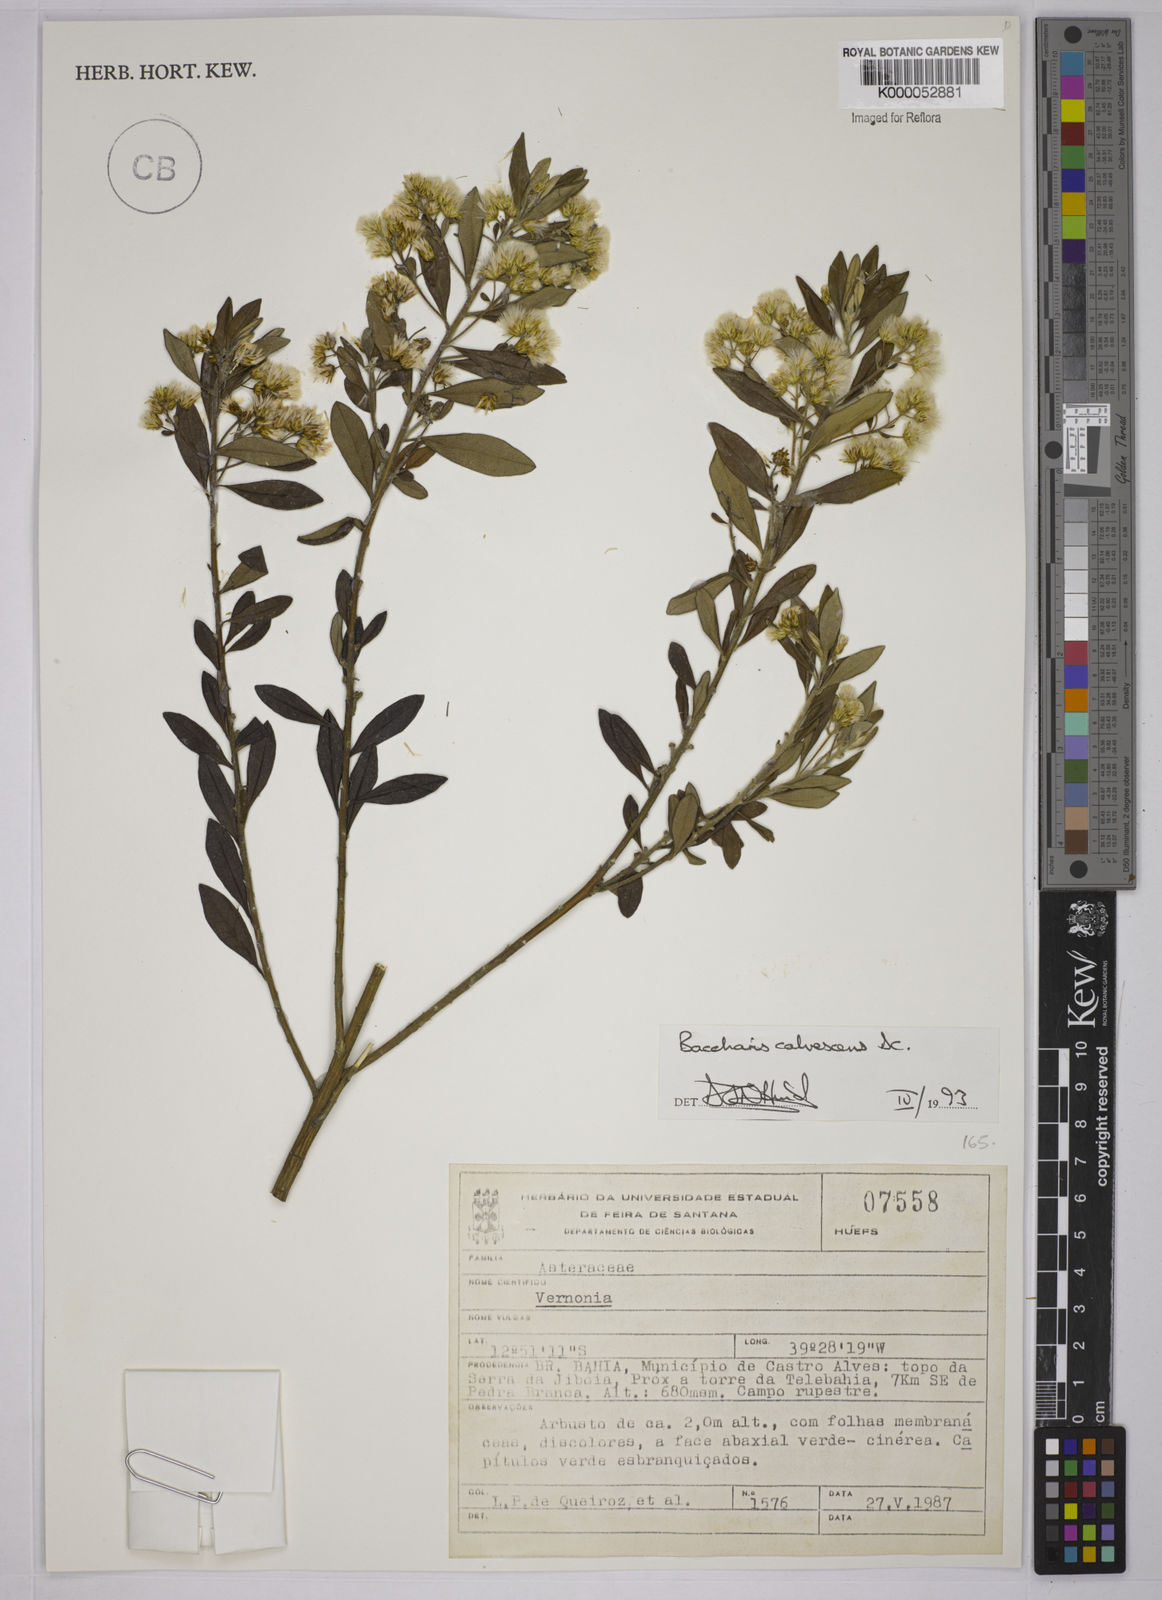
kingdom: Plantae
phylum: Tracheophyta
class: Magnoliopsida
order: Asterales
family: Asteraceae
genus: Baccharis
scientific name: Baccharis calvescens
